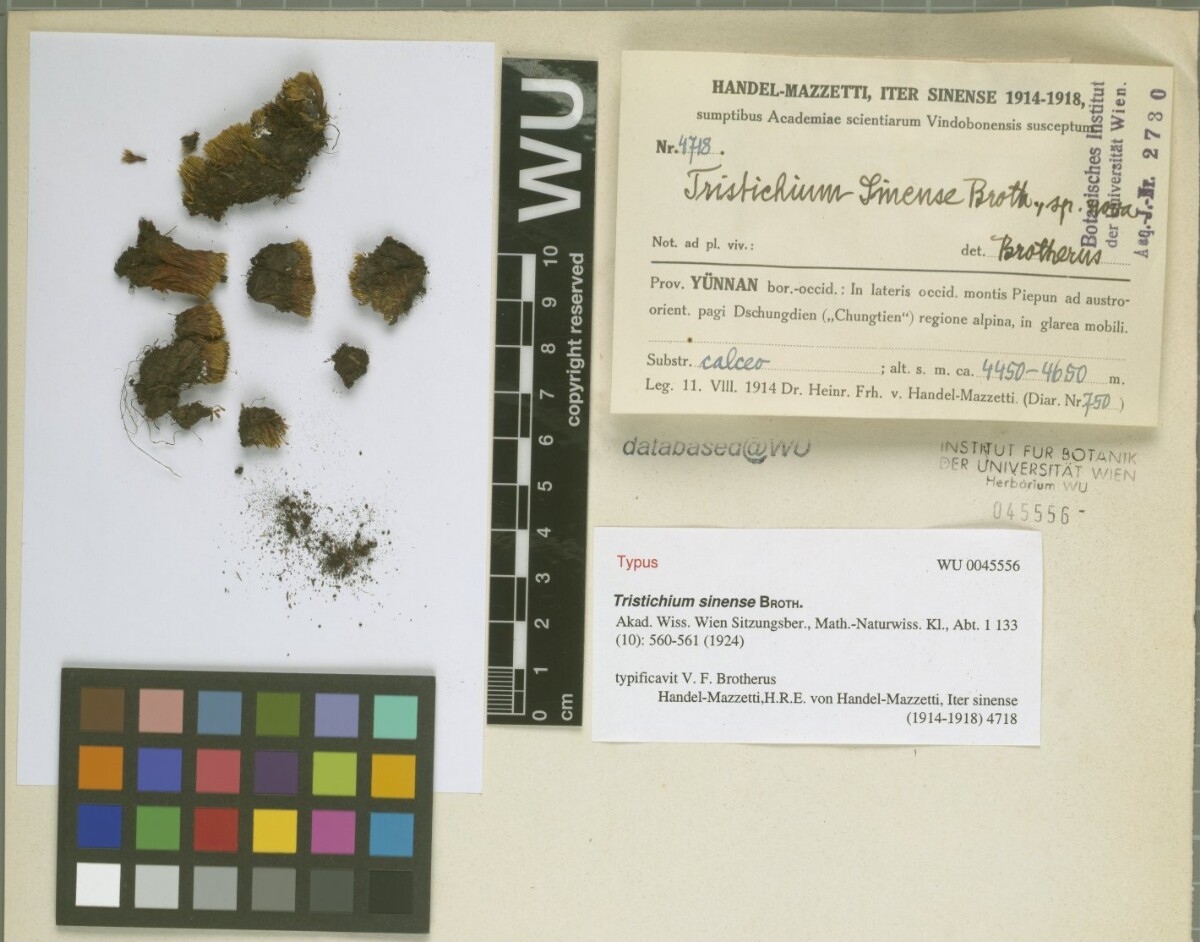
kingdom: Plantae
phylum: Bryophyta
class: Bryopsida
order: Dicranales
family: Ditrichaceae
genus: Tristichium
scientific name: Tristichium sinense
